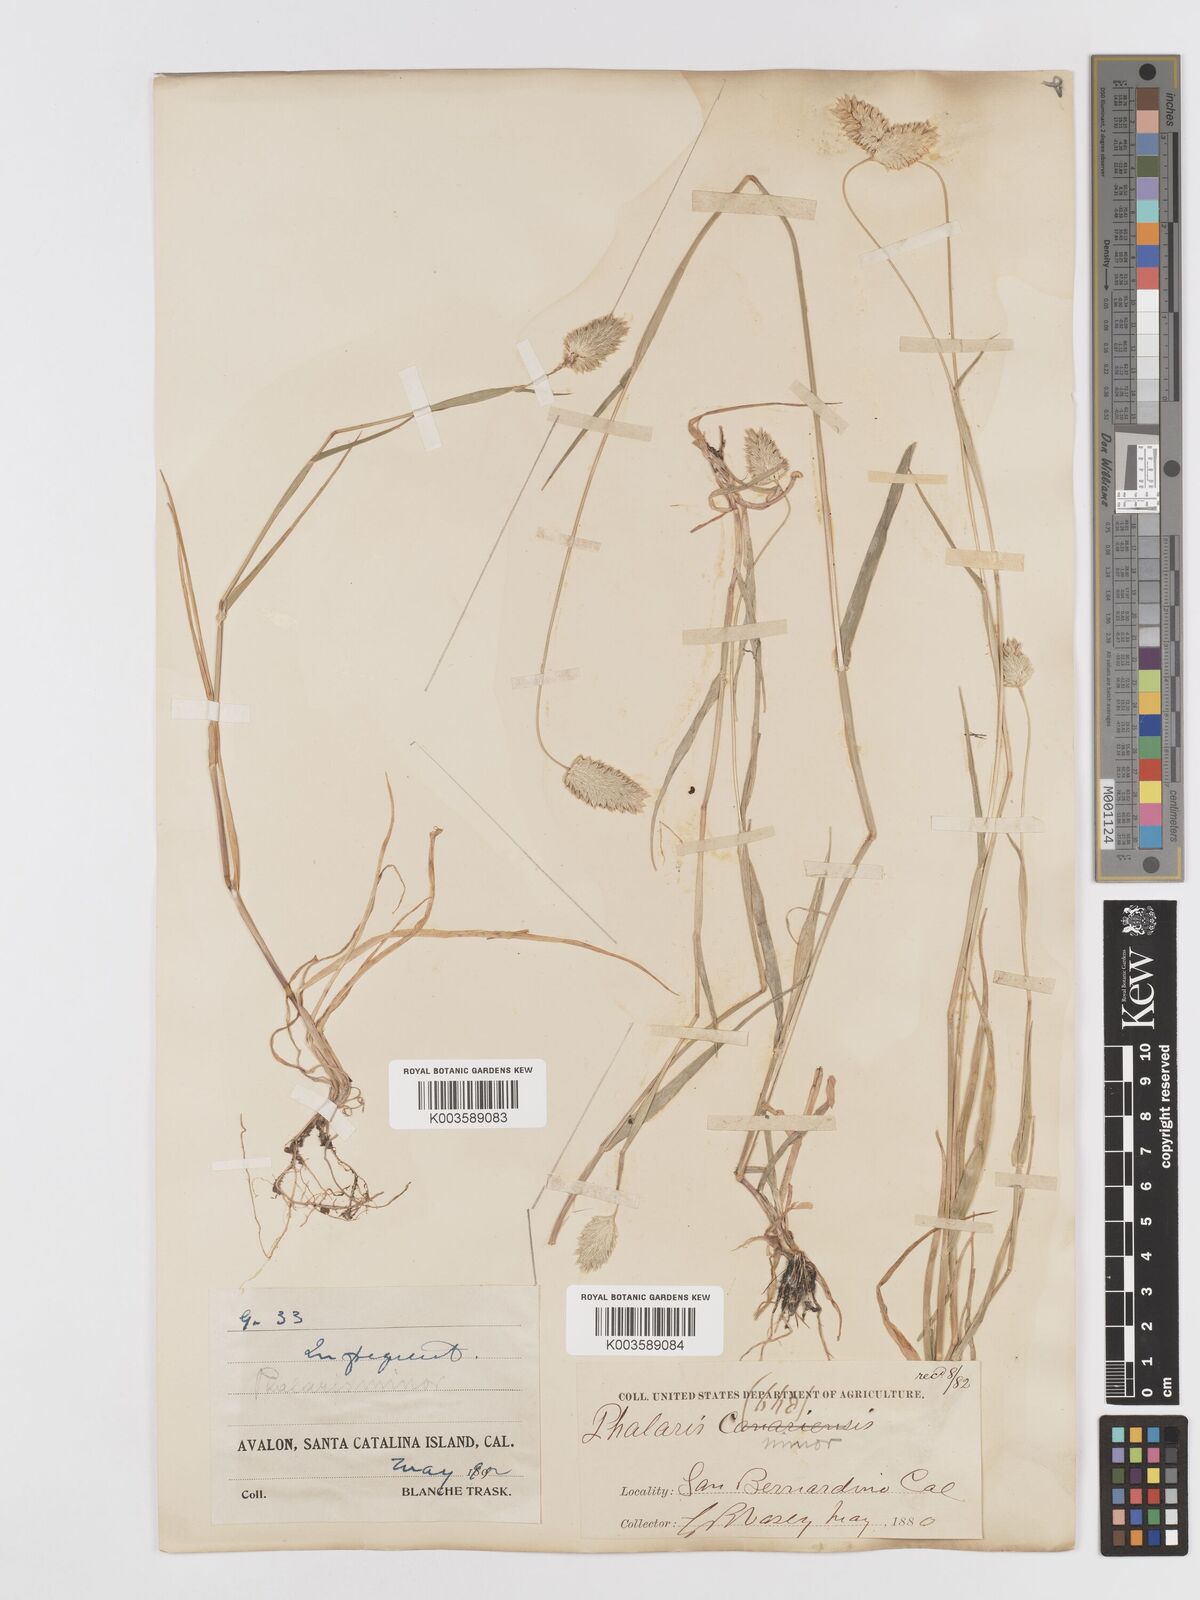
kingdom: Plantae
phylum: Tracheophyta
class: Liliopsida
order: Poales
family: Poaceae
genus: Phalaris
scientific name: Phalaris minor
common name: Littleseed canarygrass
